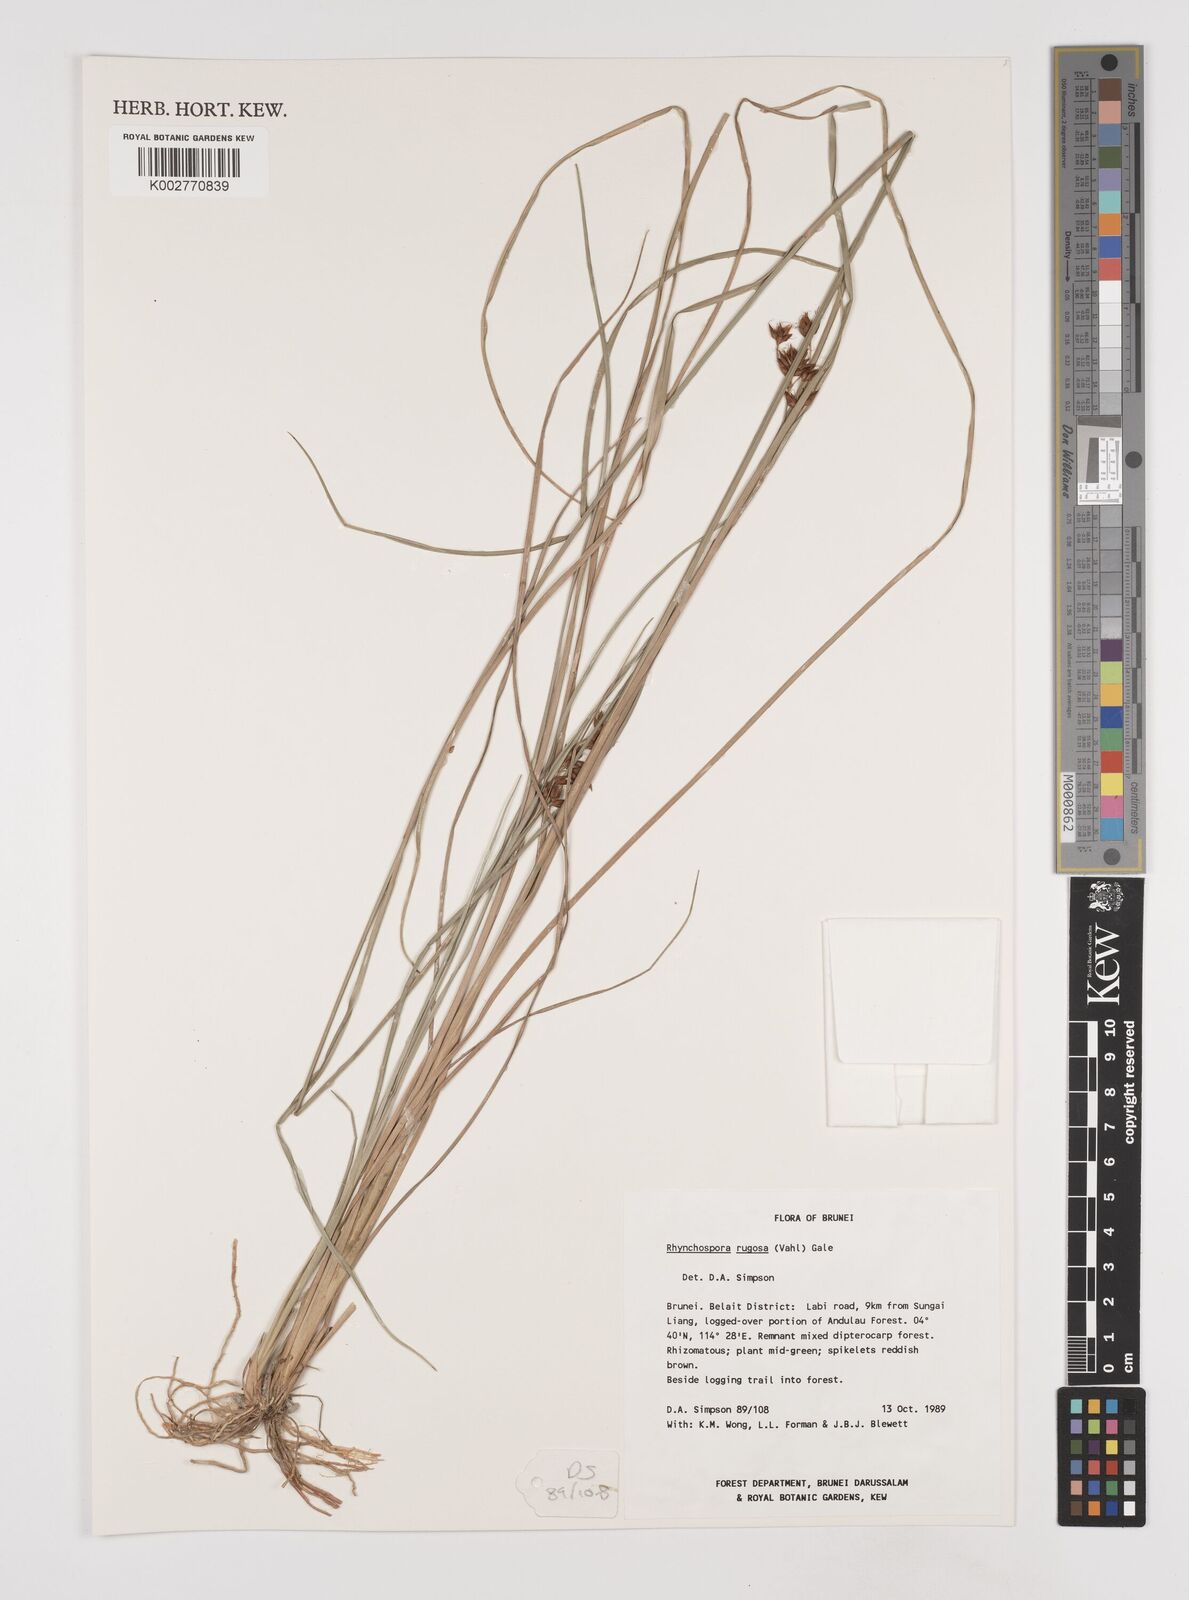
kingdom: Plantae
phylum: Tracheophyta
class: Liliopsida
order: Poales
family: Cyperaceae
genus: Rhynchospora
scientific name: Rhynchospora rugosa
